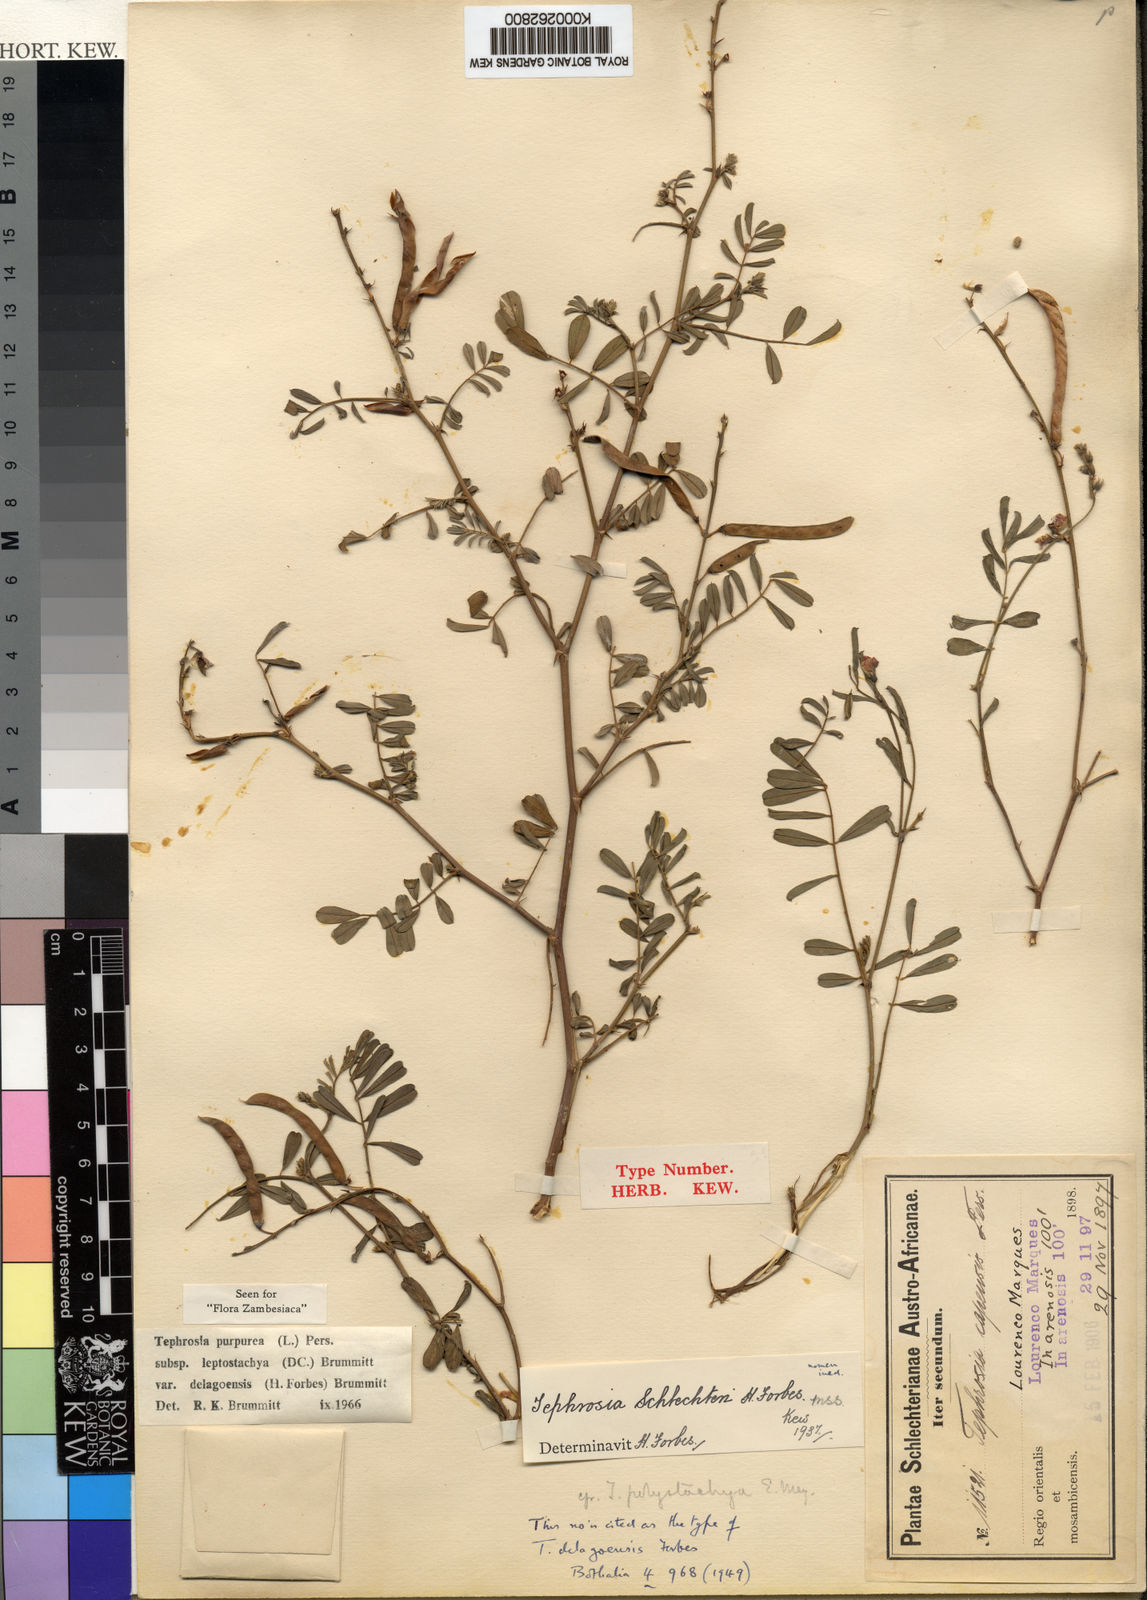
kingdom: Plantae
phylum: Tracheophyta
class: Magnoliopsida
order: Fabales
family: Fabaceae
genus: Tephrosia
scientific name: Tephrosia purpurea
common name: Fishpoison
